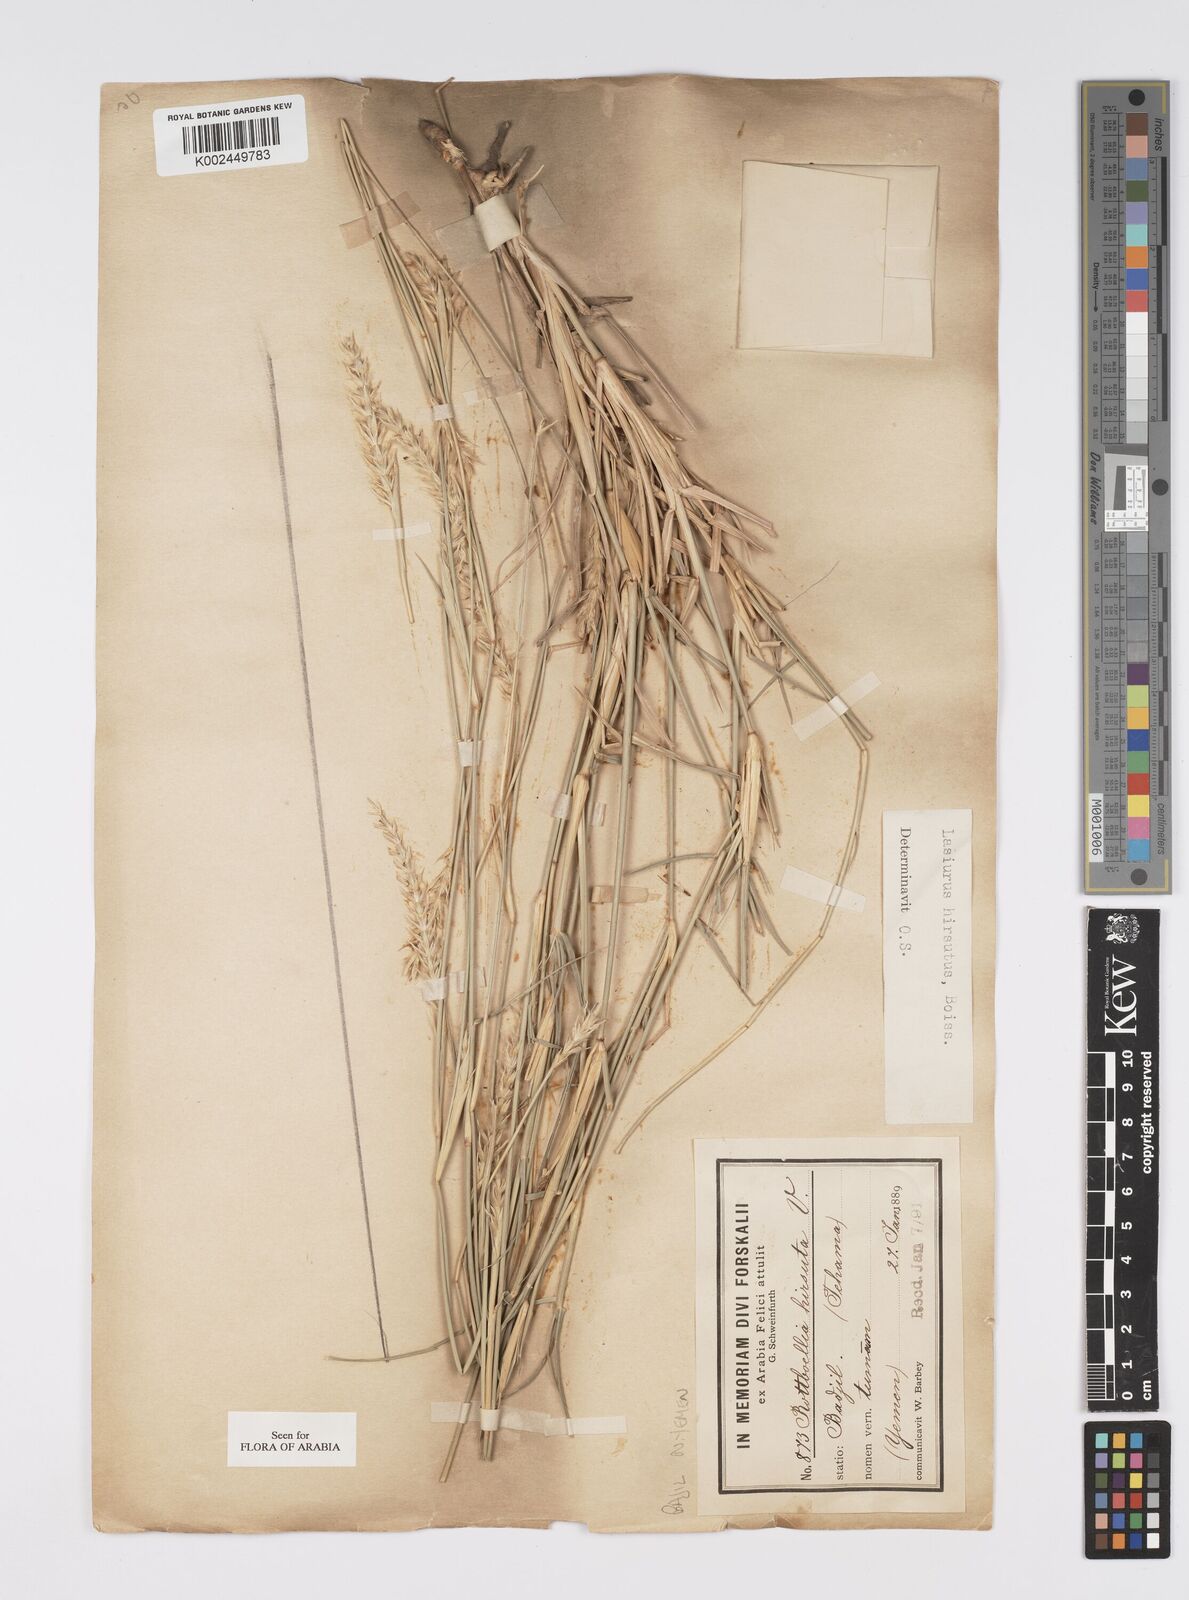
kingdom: Plantae
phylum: Tracheophyta
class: Liliopsida
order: Poales
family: Poaceae
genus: Lasiurus
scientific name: Lasiurus scindicus
